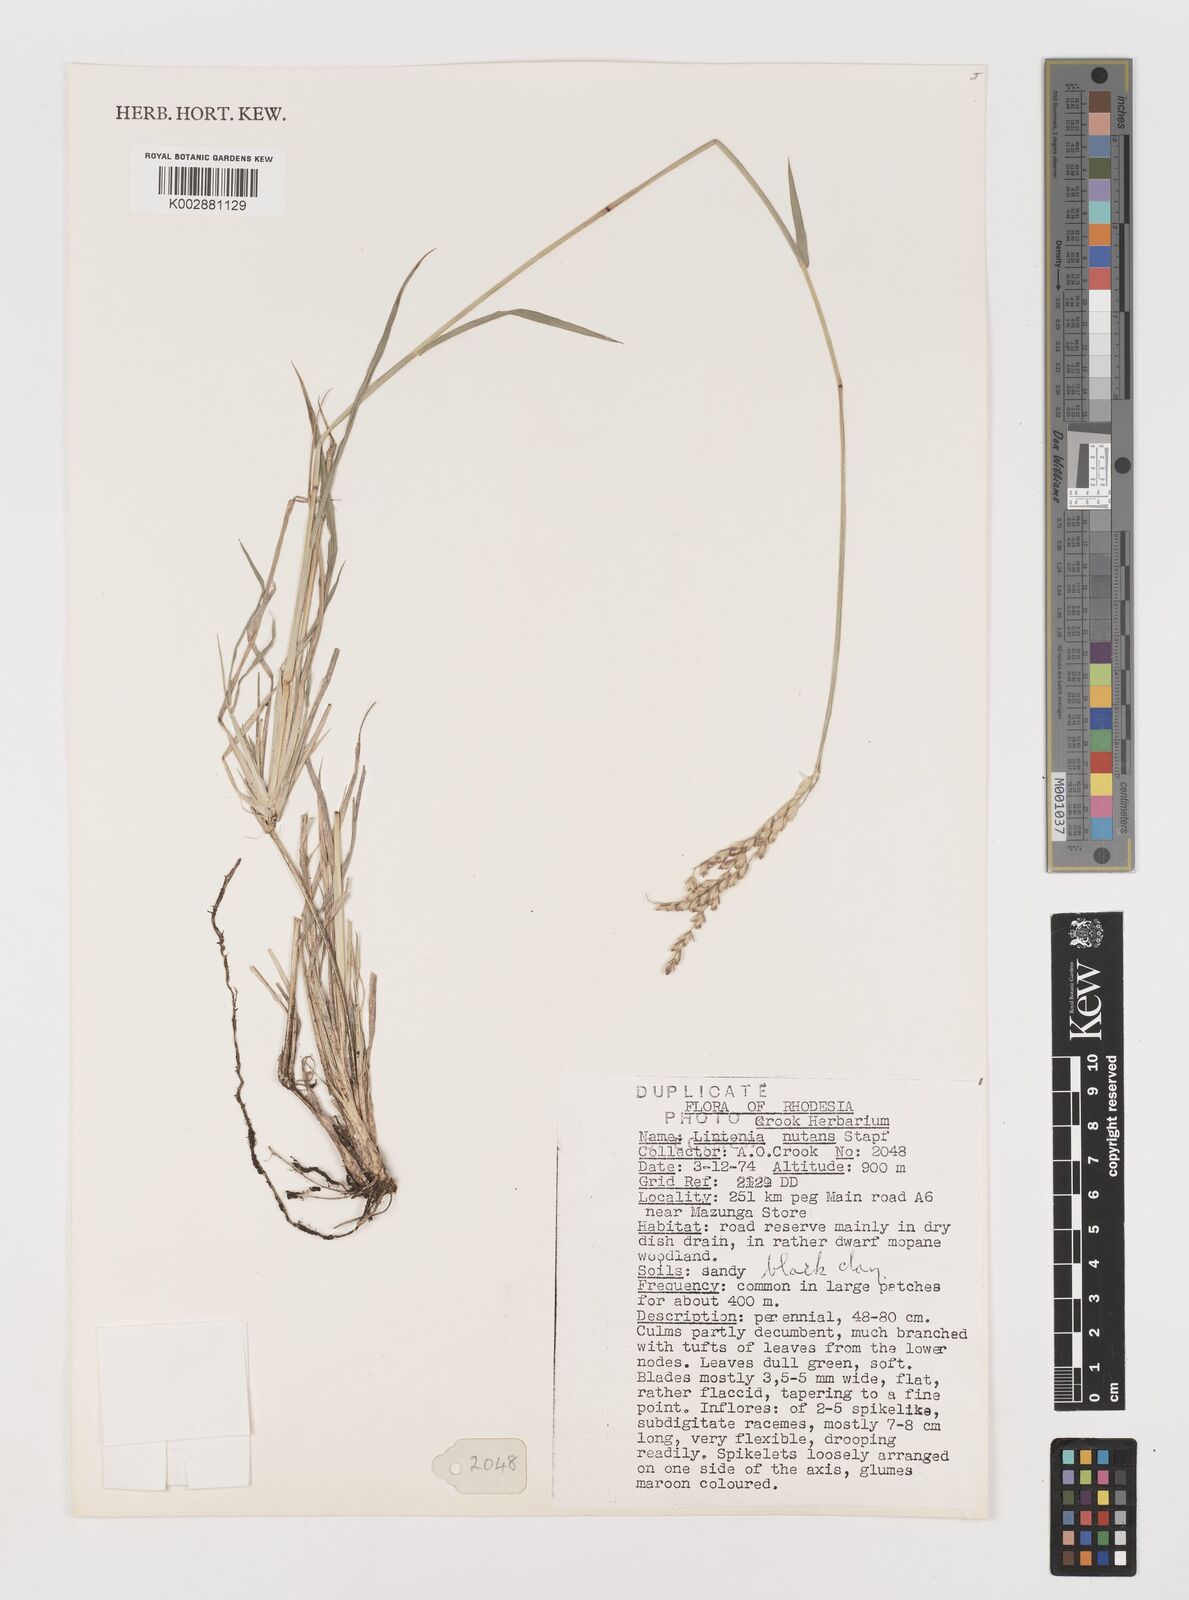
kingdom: Plantae
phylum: Tracheophyta
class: Liliopsida
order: Poales
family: Poaceae
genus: Chloris
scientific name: Chloris nutans
